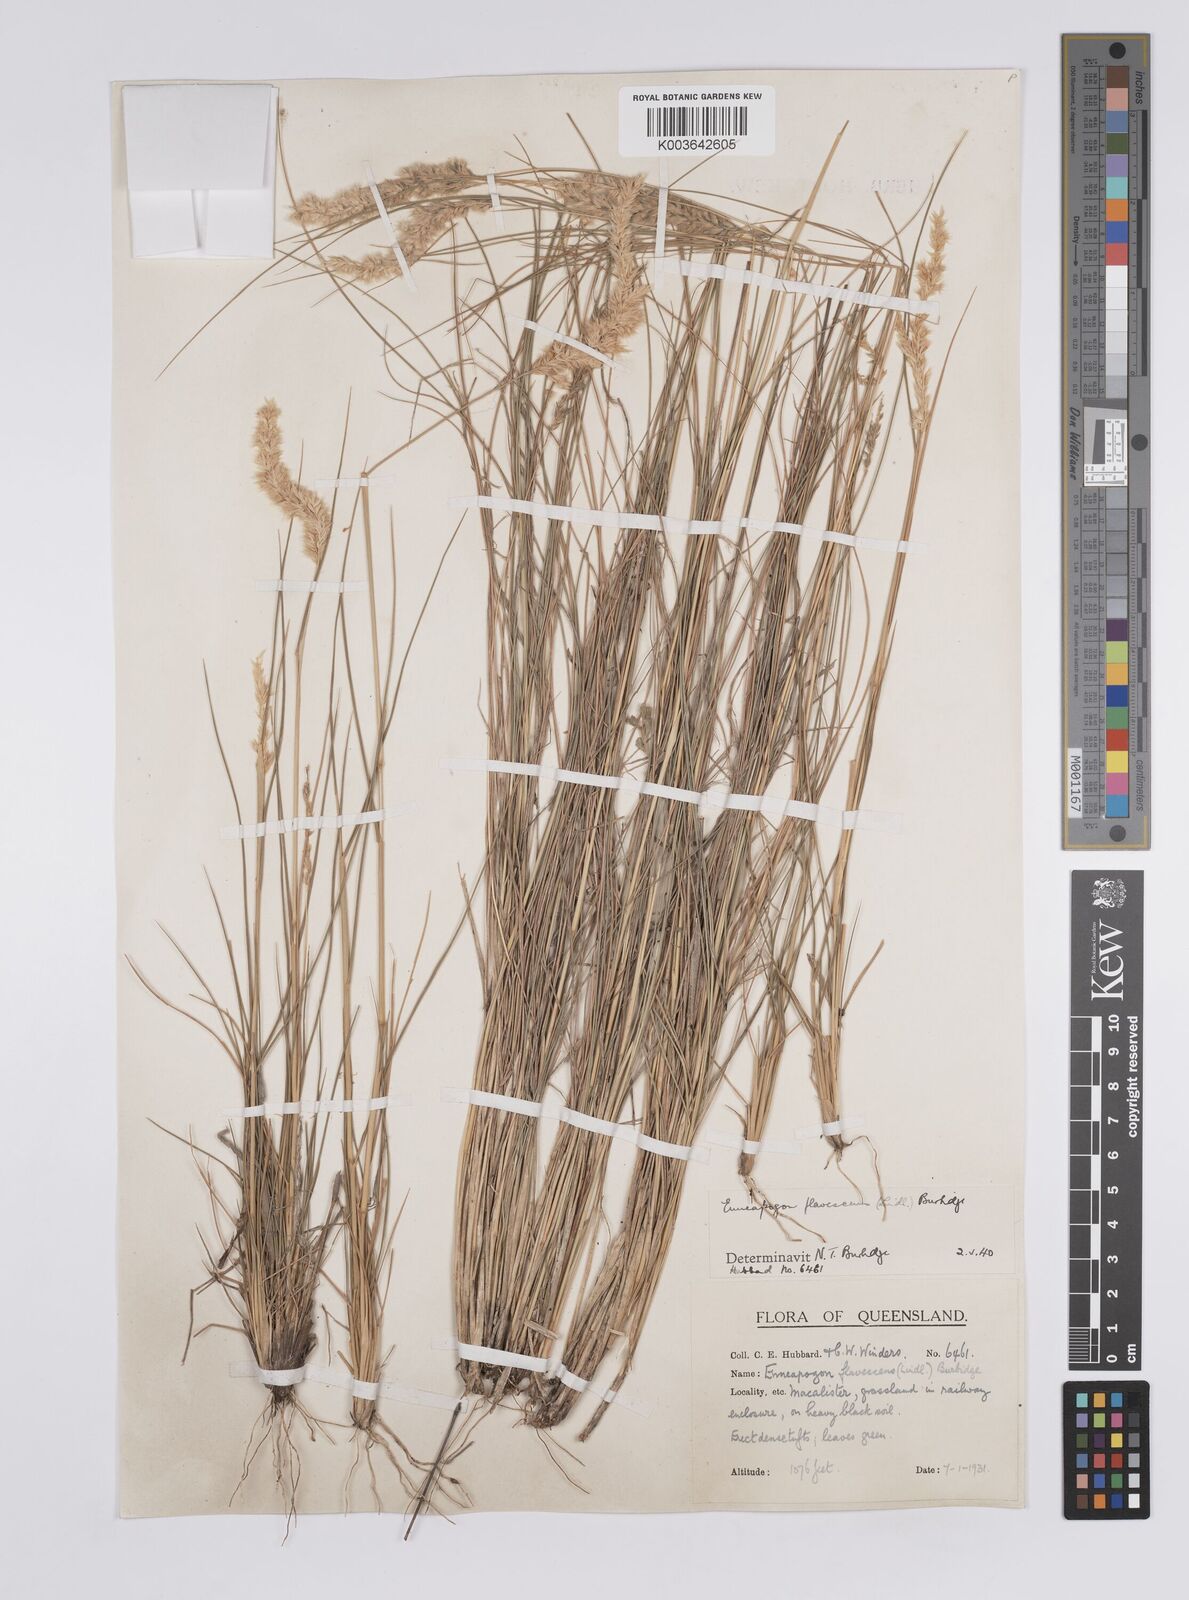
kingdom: Plantae
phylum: Tracheophyta
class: Liliopsida
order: Poales
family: Poaceae
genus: Enneapogon
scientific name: Enneapogon truncatus
